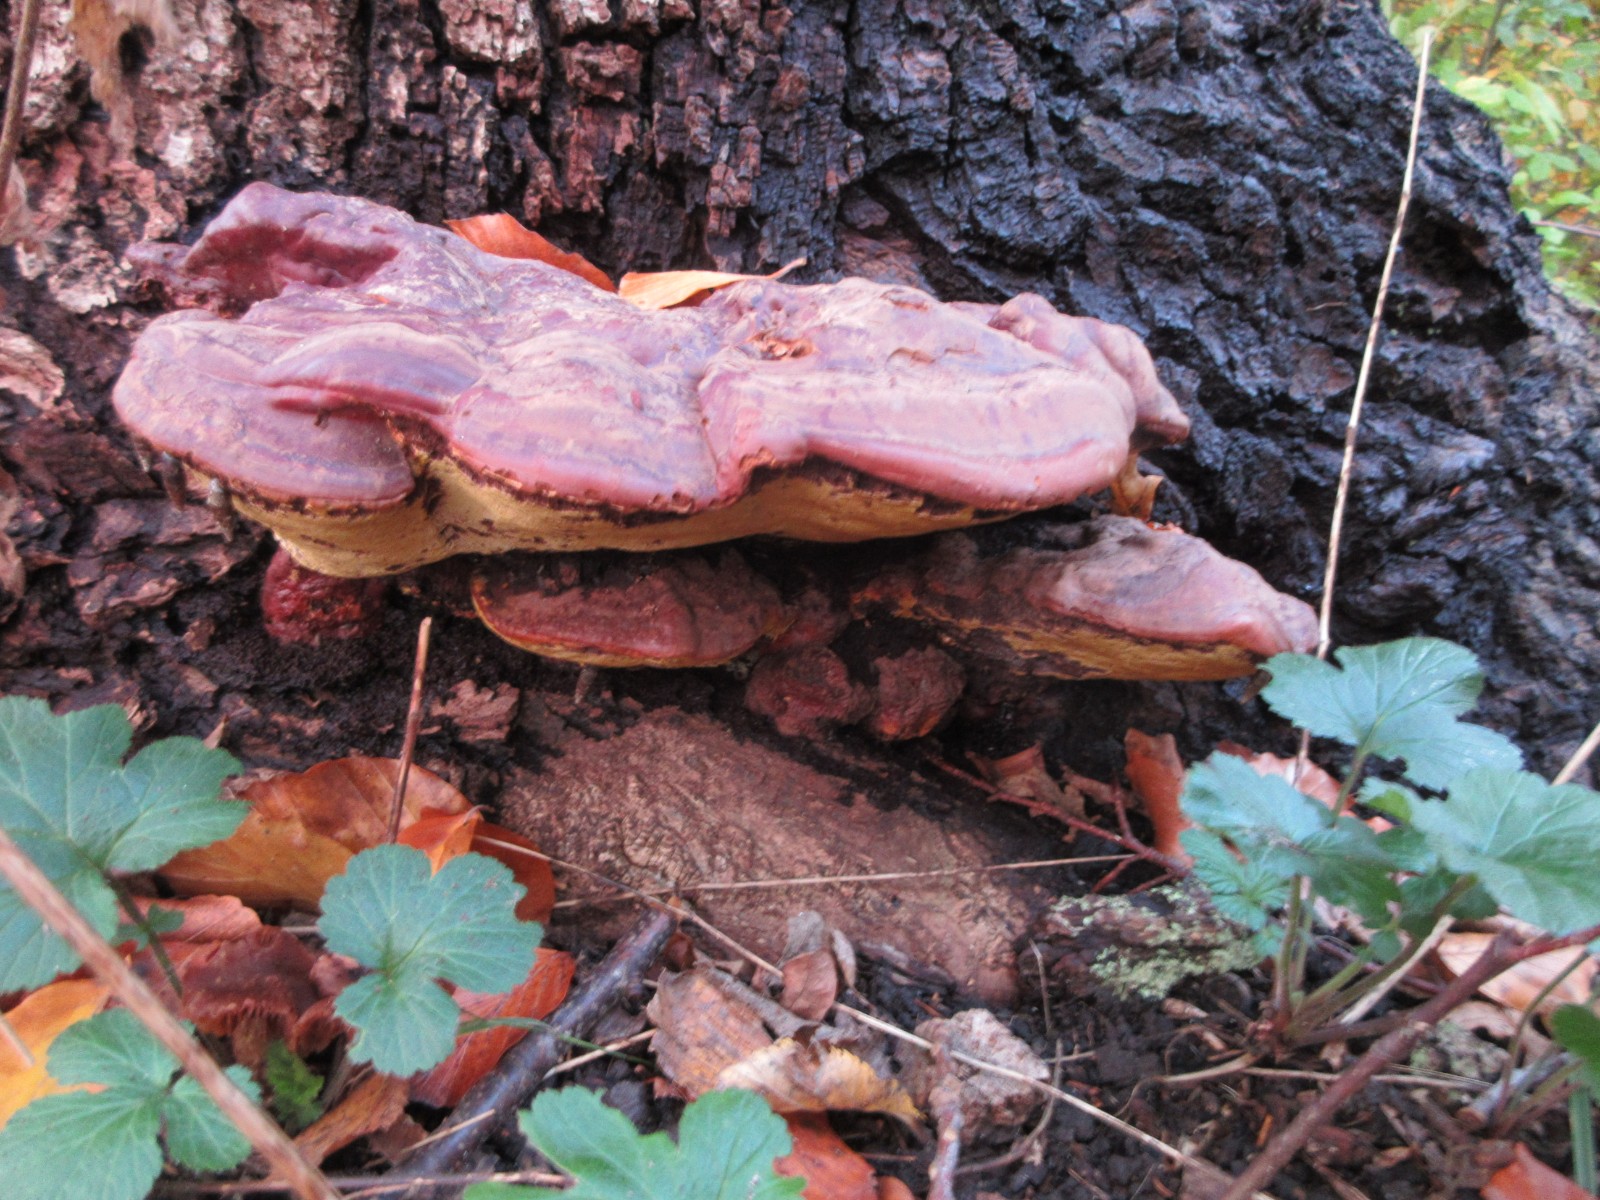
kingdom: Fungi
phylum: Basidiomycota
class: Agaricomycetes
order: Polyporales
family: Polyporaceae
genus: Ganoderma
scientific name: Ganoderma resinaceum
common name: gyldenbrun lakporesvamp
